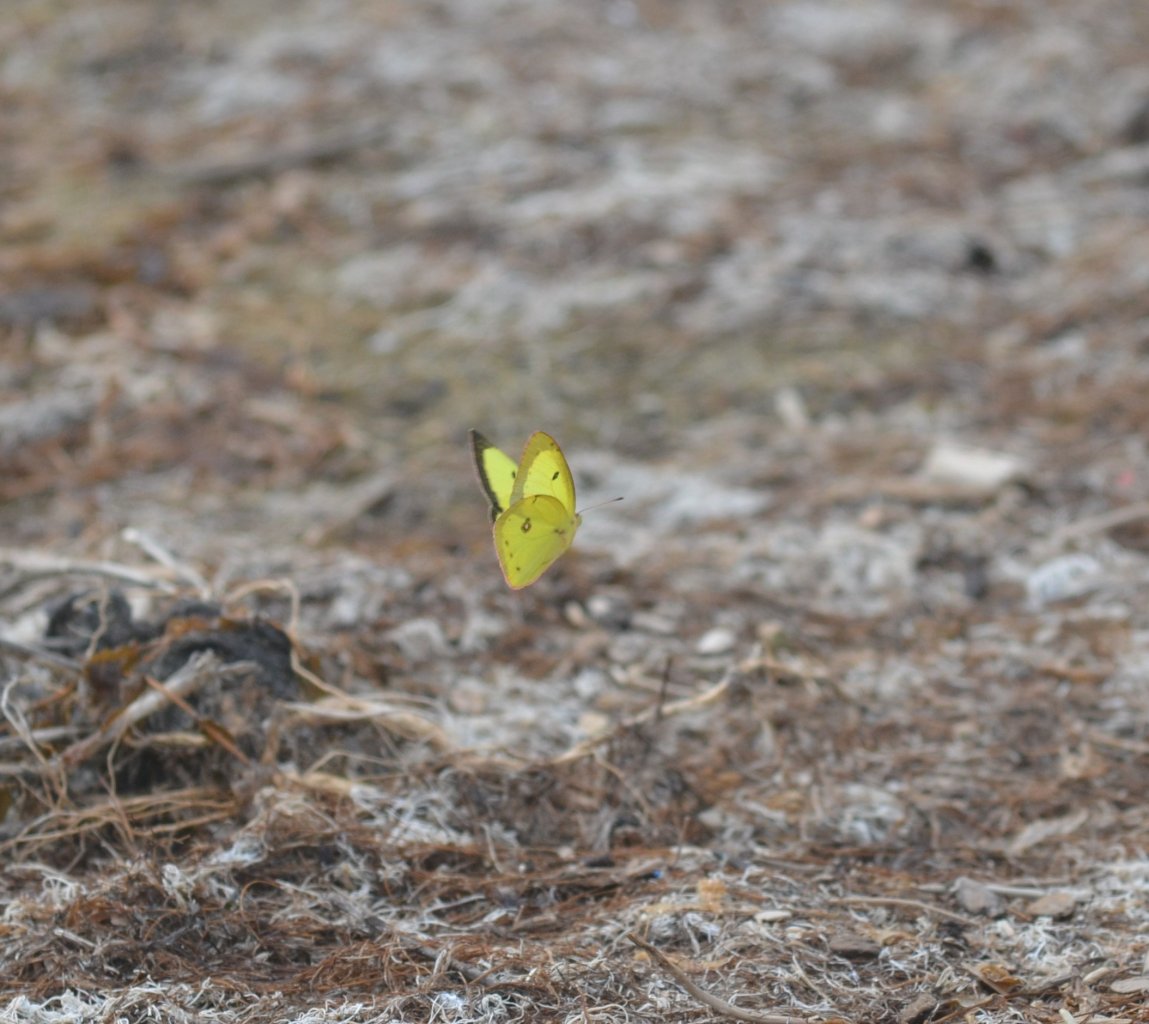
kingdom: Animalia
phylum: Arthropoda
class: Insecta
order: Lepidoptera
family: Pieridae
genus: Colias
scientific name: Colias philodice
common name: Clouded Sulphur
